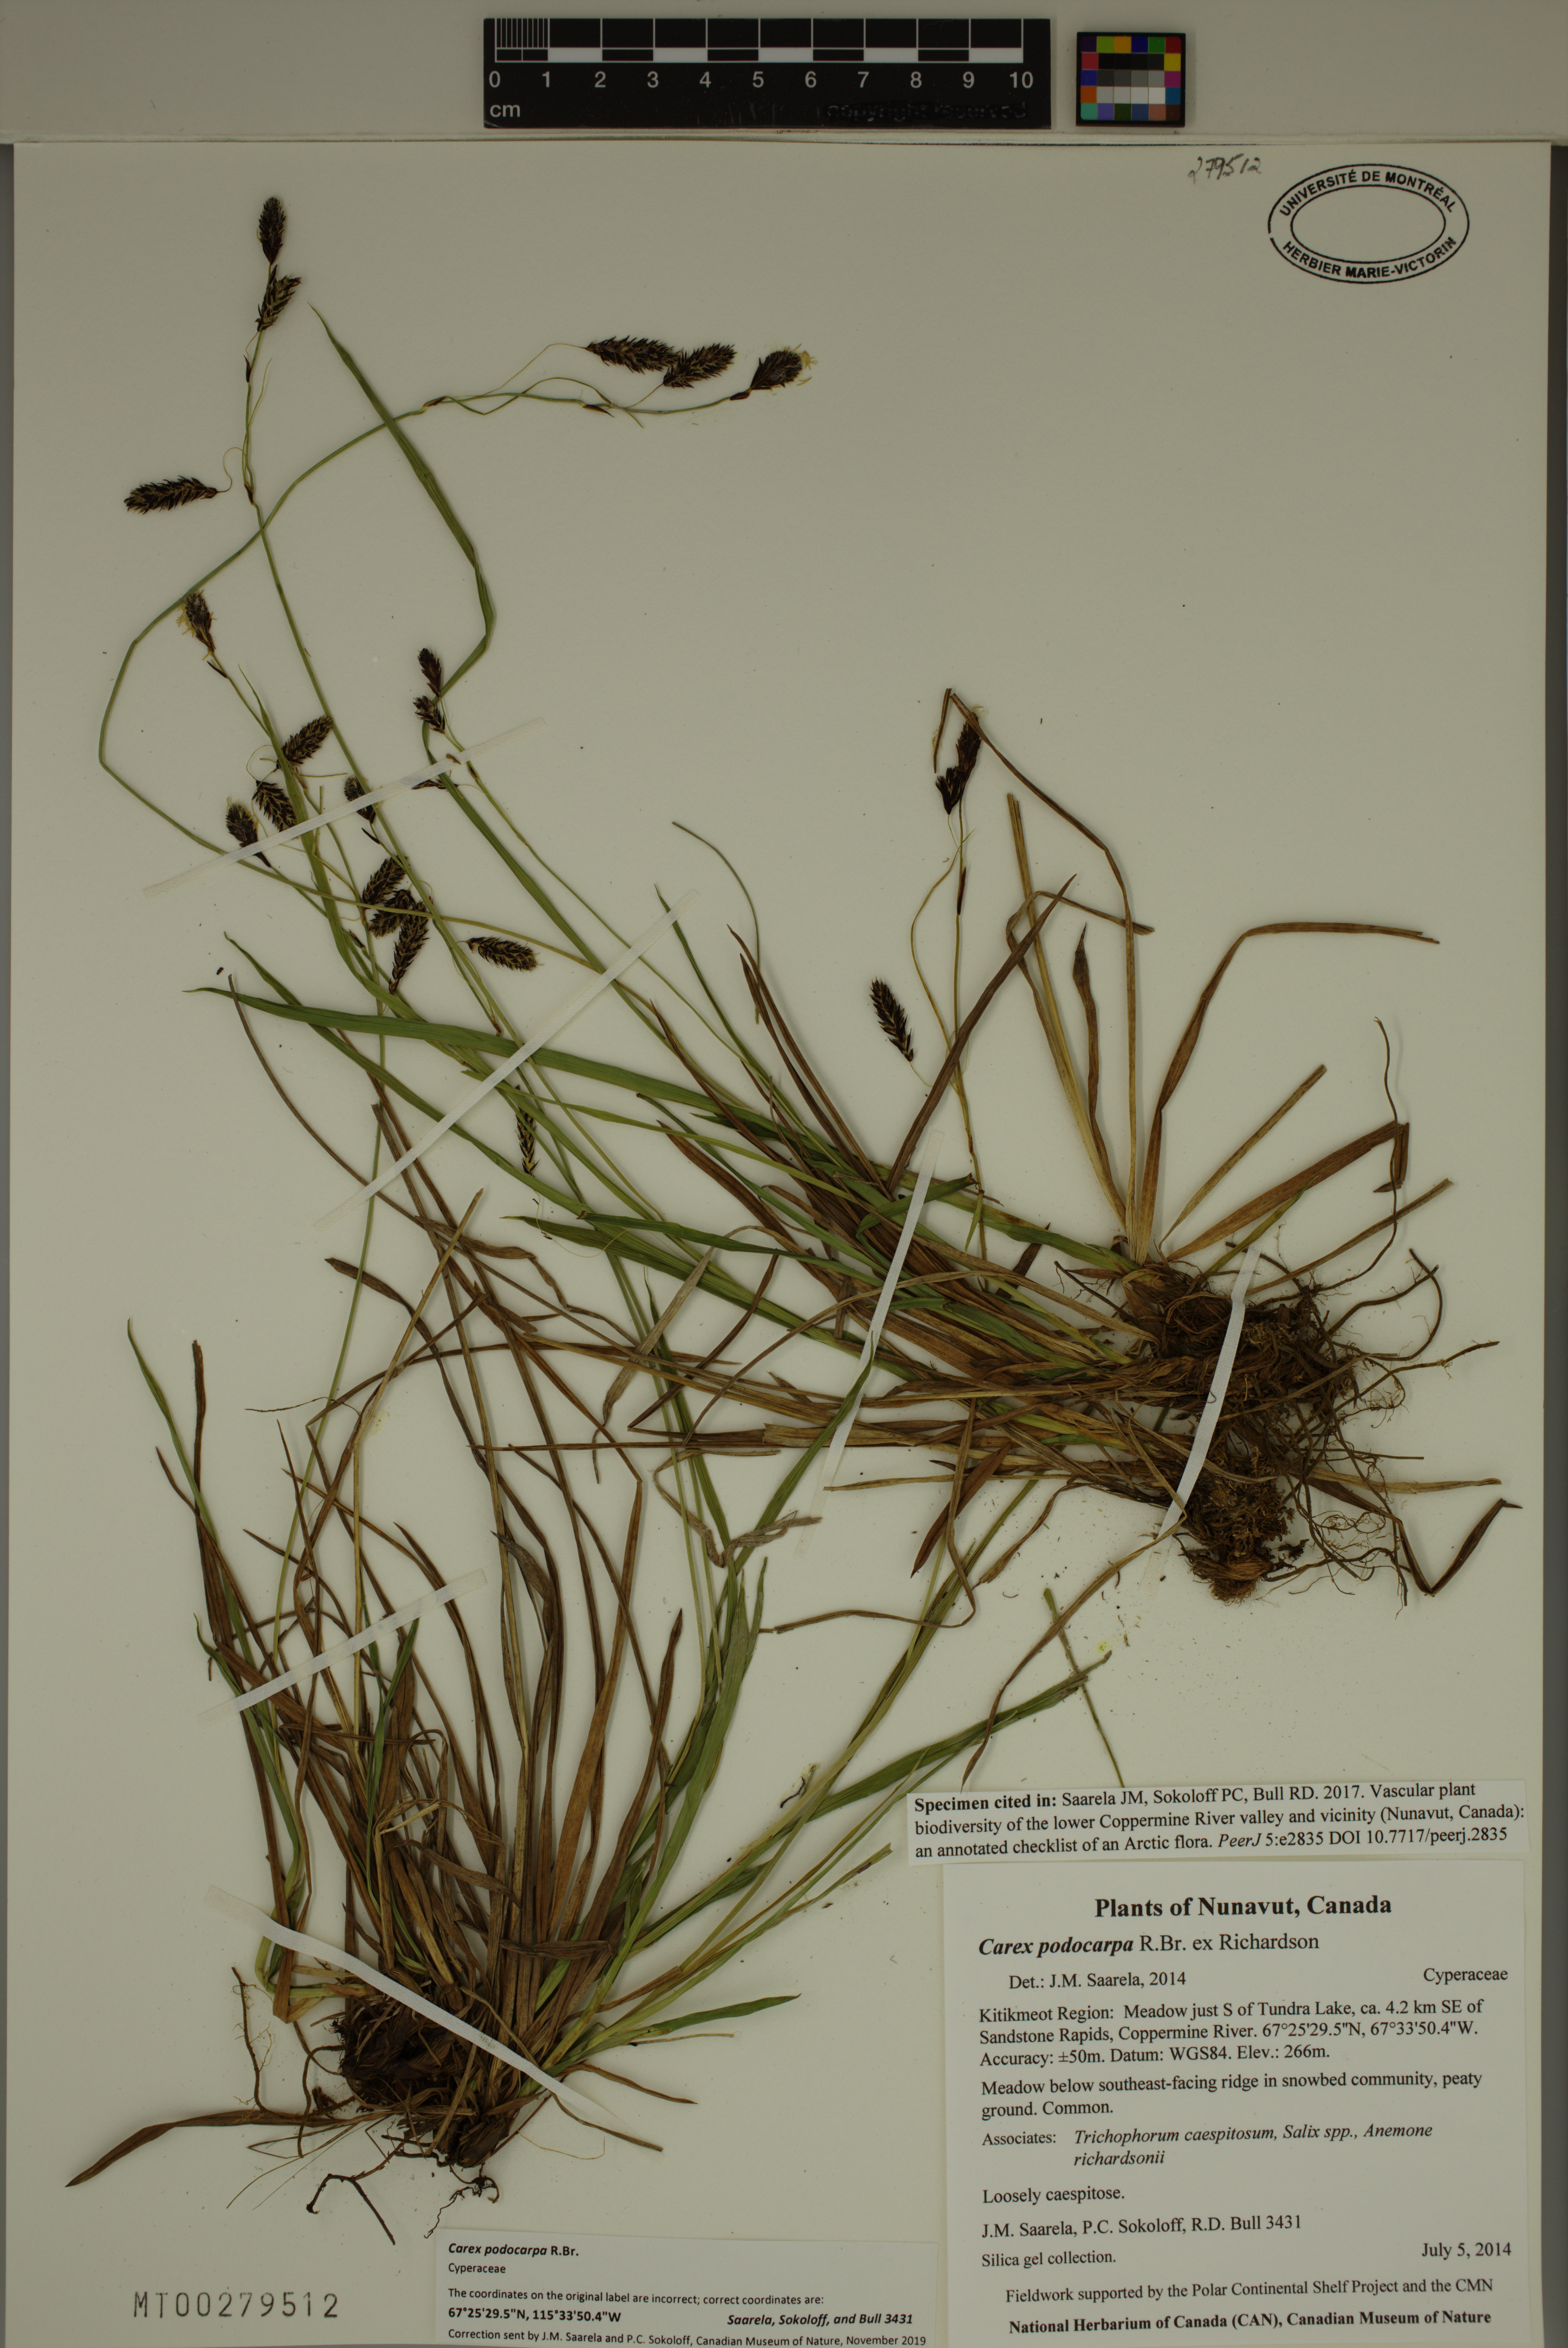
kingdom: Plantae
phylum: Tracheophyta
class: Liliopsida
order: Poales
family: Cyperaceae
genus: Carex
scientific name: Carex podocarpa
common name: Alpine sedge
